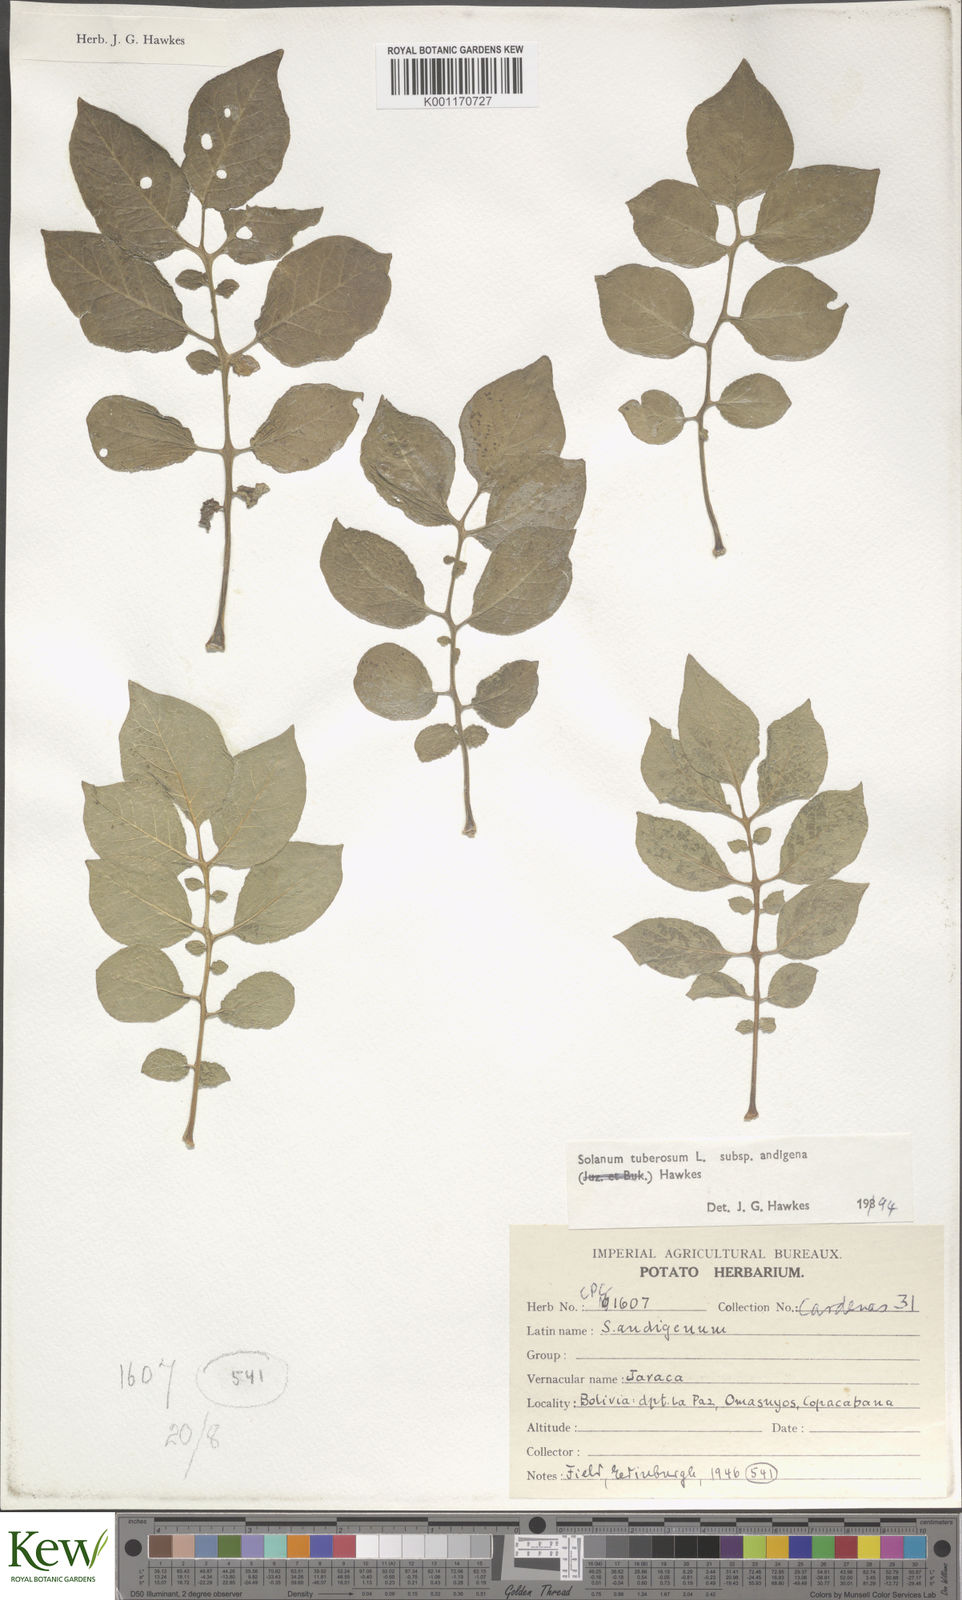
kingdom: Plantae
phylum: Tracheophyta
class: Magnoliopsida
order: Solanales
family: Solanaceae
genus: Solanum
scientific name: Solanum tuberosum
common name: Potato
